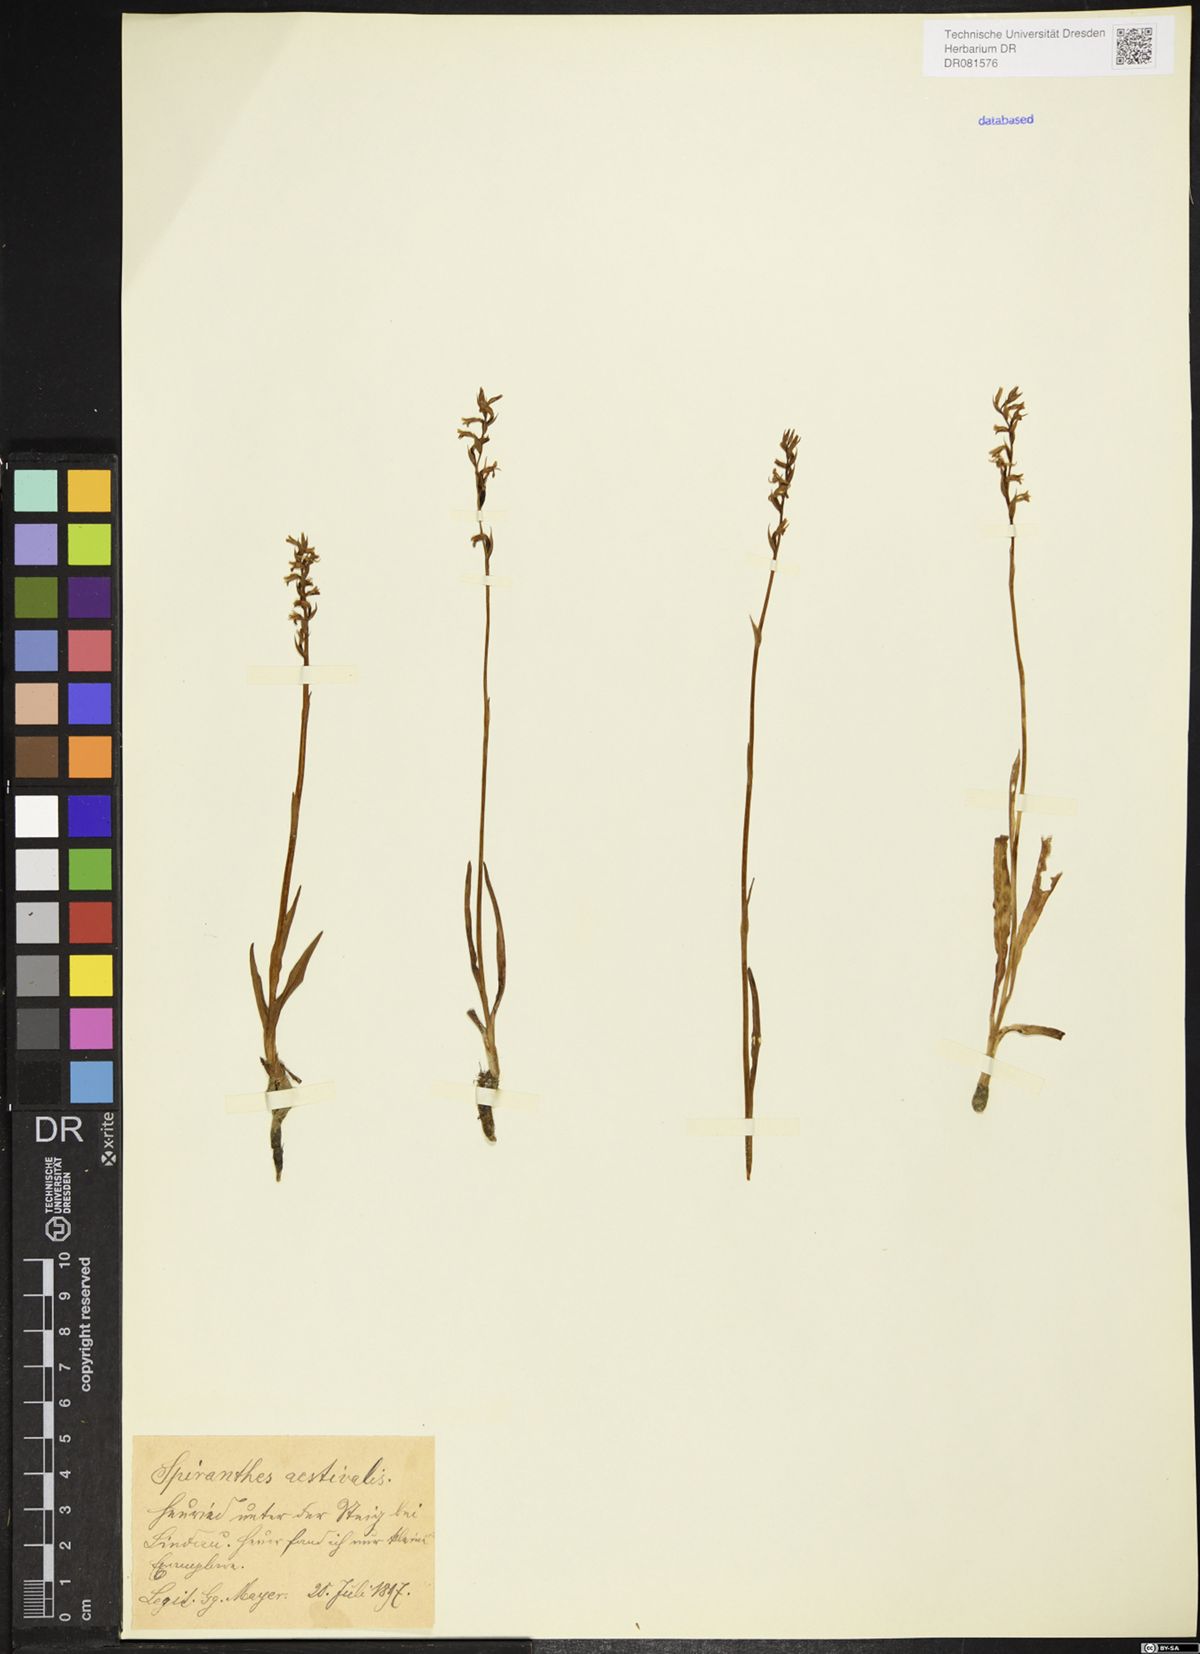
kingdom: Plantae
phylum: Tracheophyta
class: Liliopsida
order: Asparagales
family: Orchidaceae
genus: Spiranthes
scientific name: Spiranthes aestivalis
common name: Summer lady's-tresses
